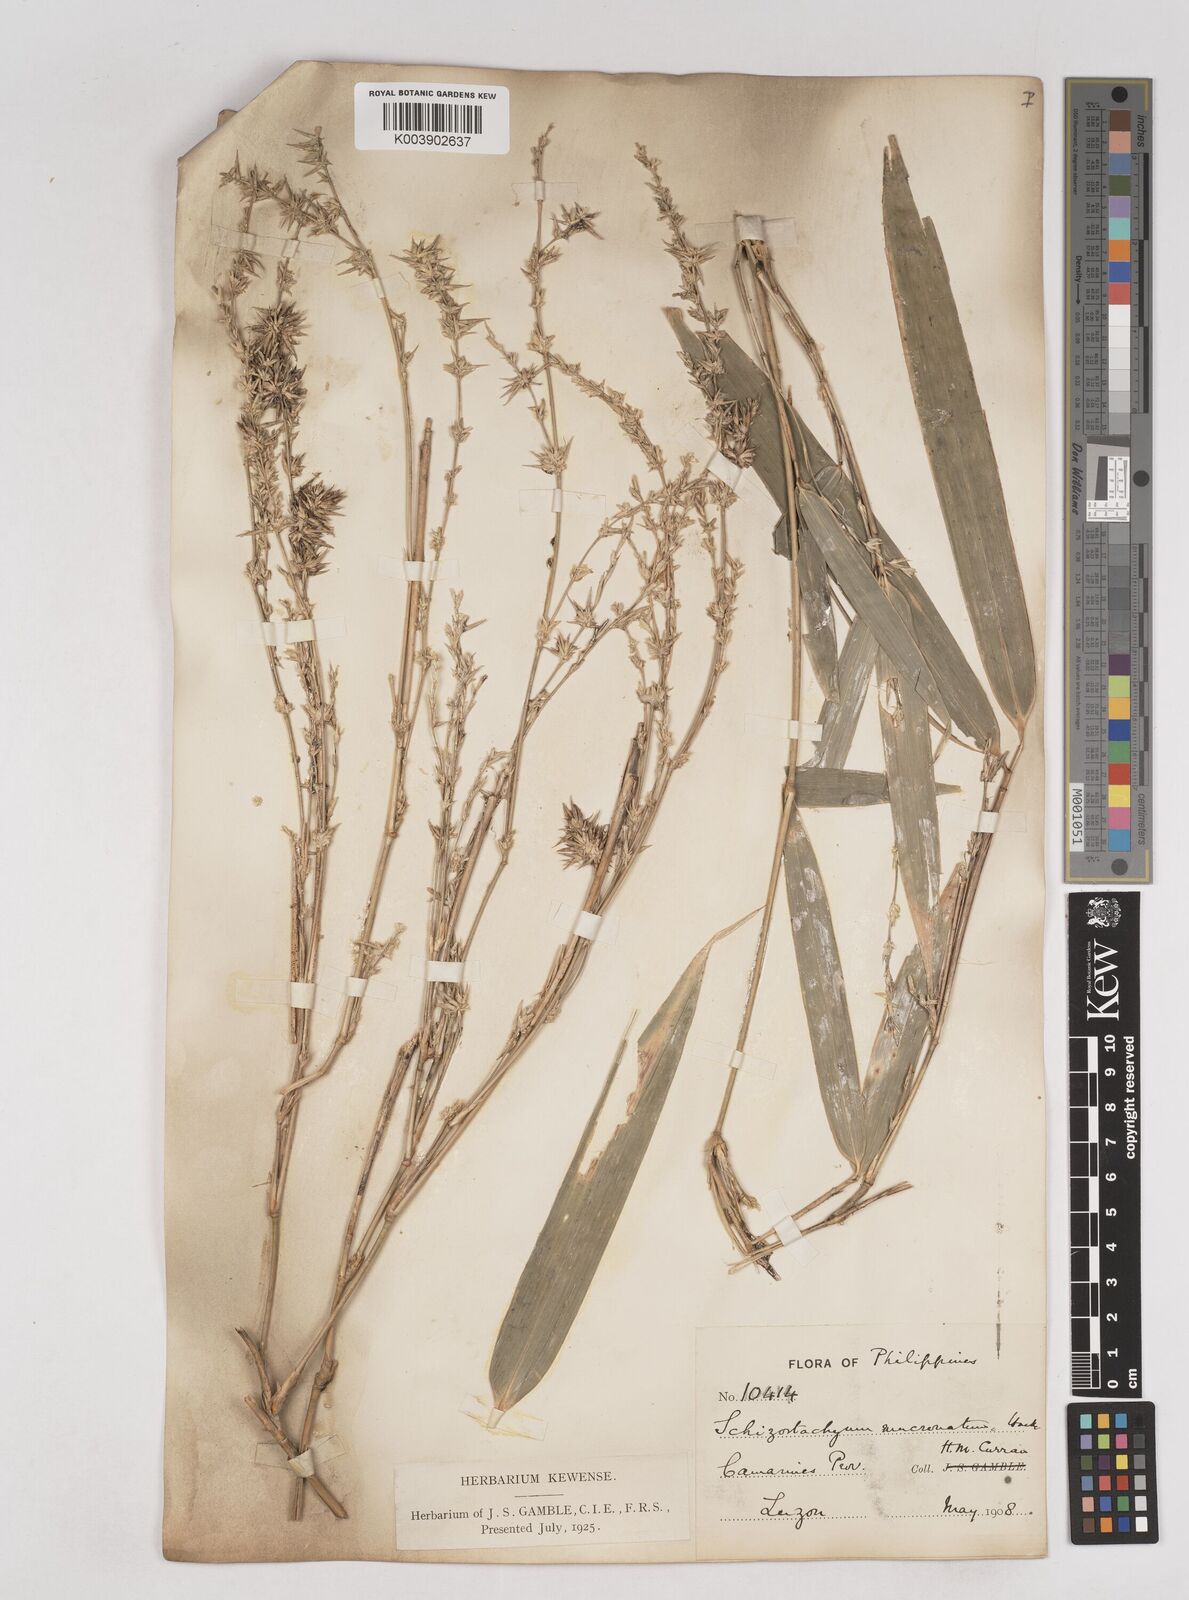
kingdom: Plantae
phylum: Tracheophyta
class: Liliopsida
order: Poales
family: Poaceae
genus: Schizostachyum
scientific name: Schizostachyum lumampao
